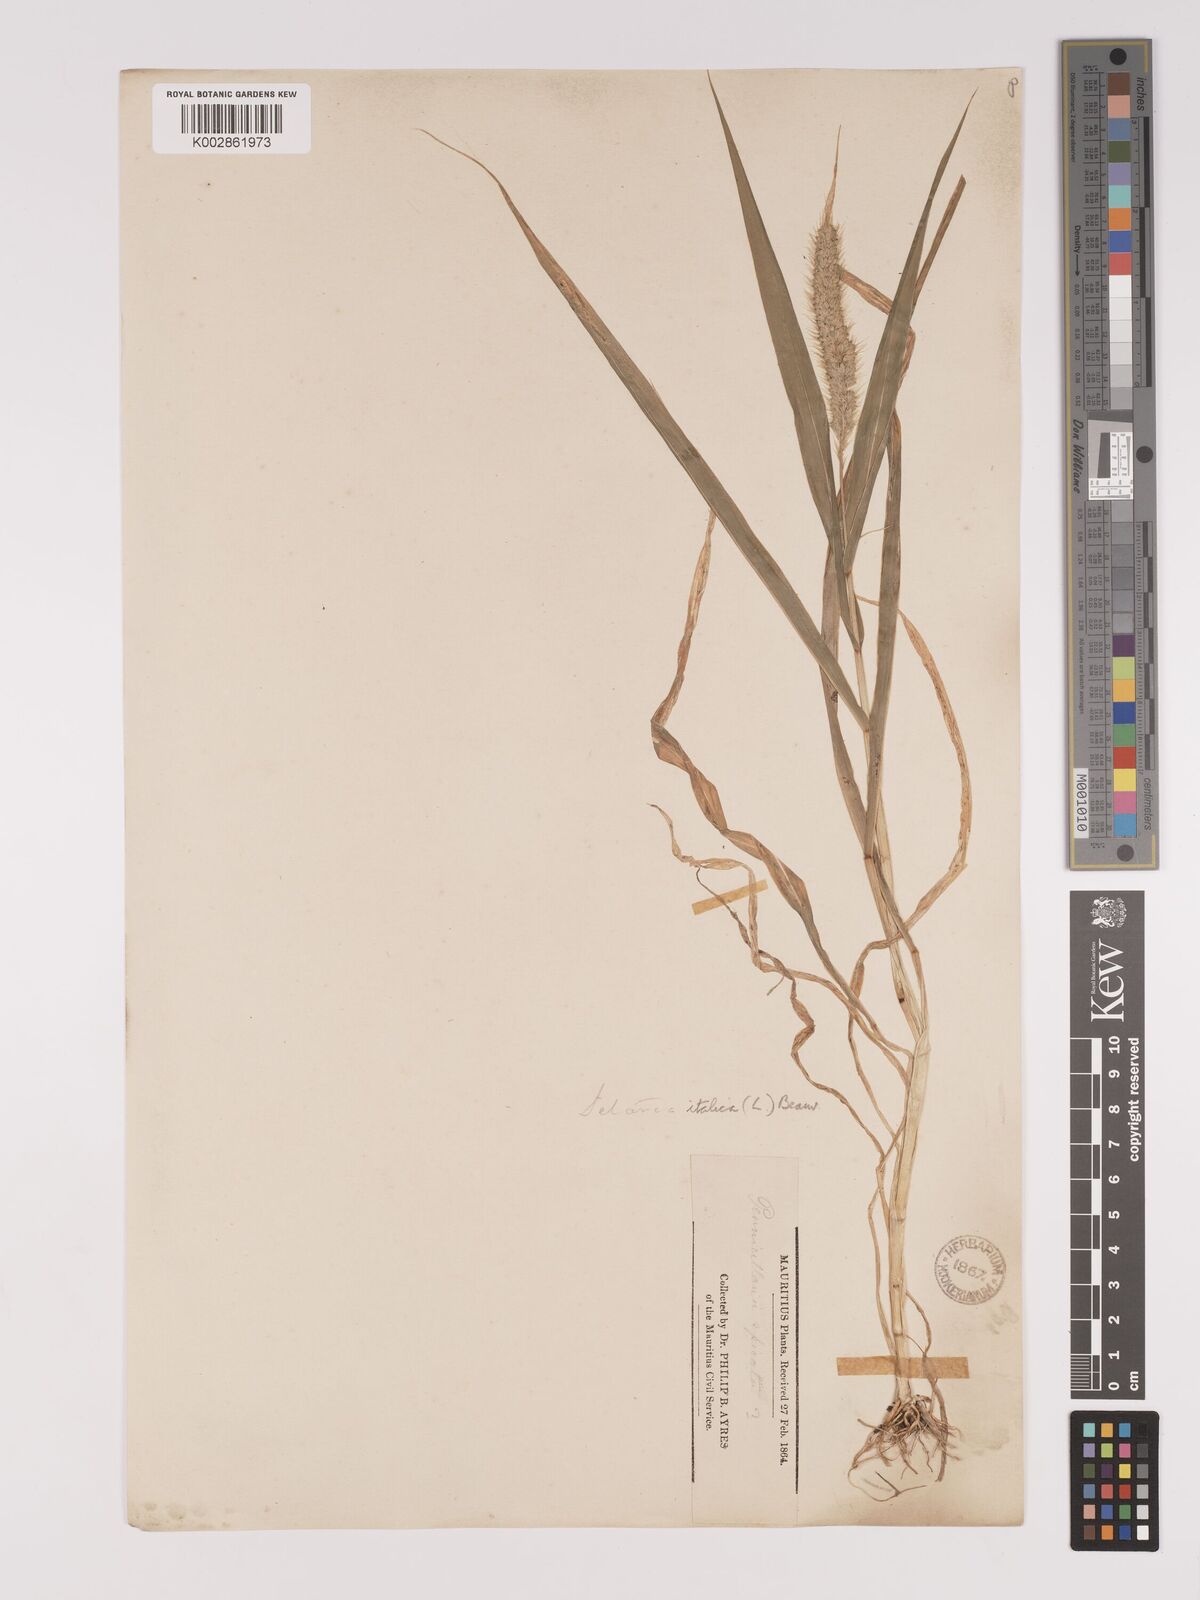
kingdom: Plantae
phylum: Tracheophyta
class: Liliopsida
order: Poales
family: Poaceae
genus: Setaria
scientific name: Setaria italica
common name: Foxtail bristle-grass
